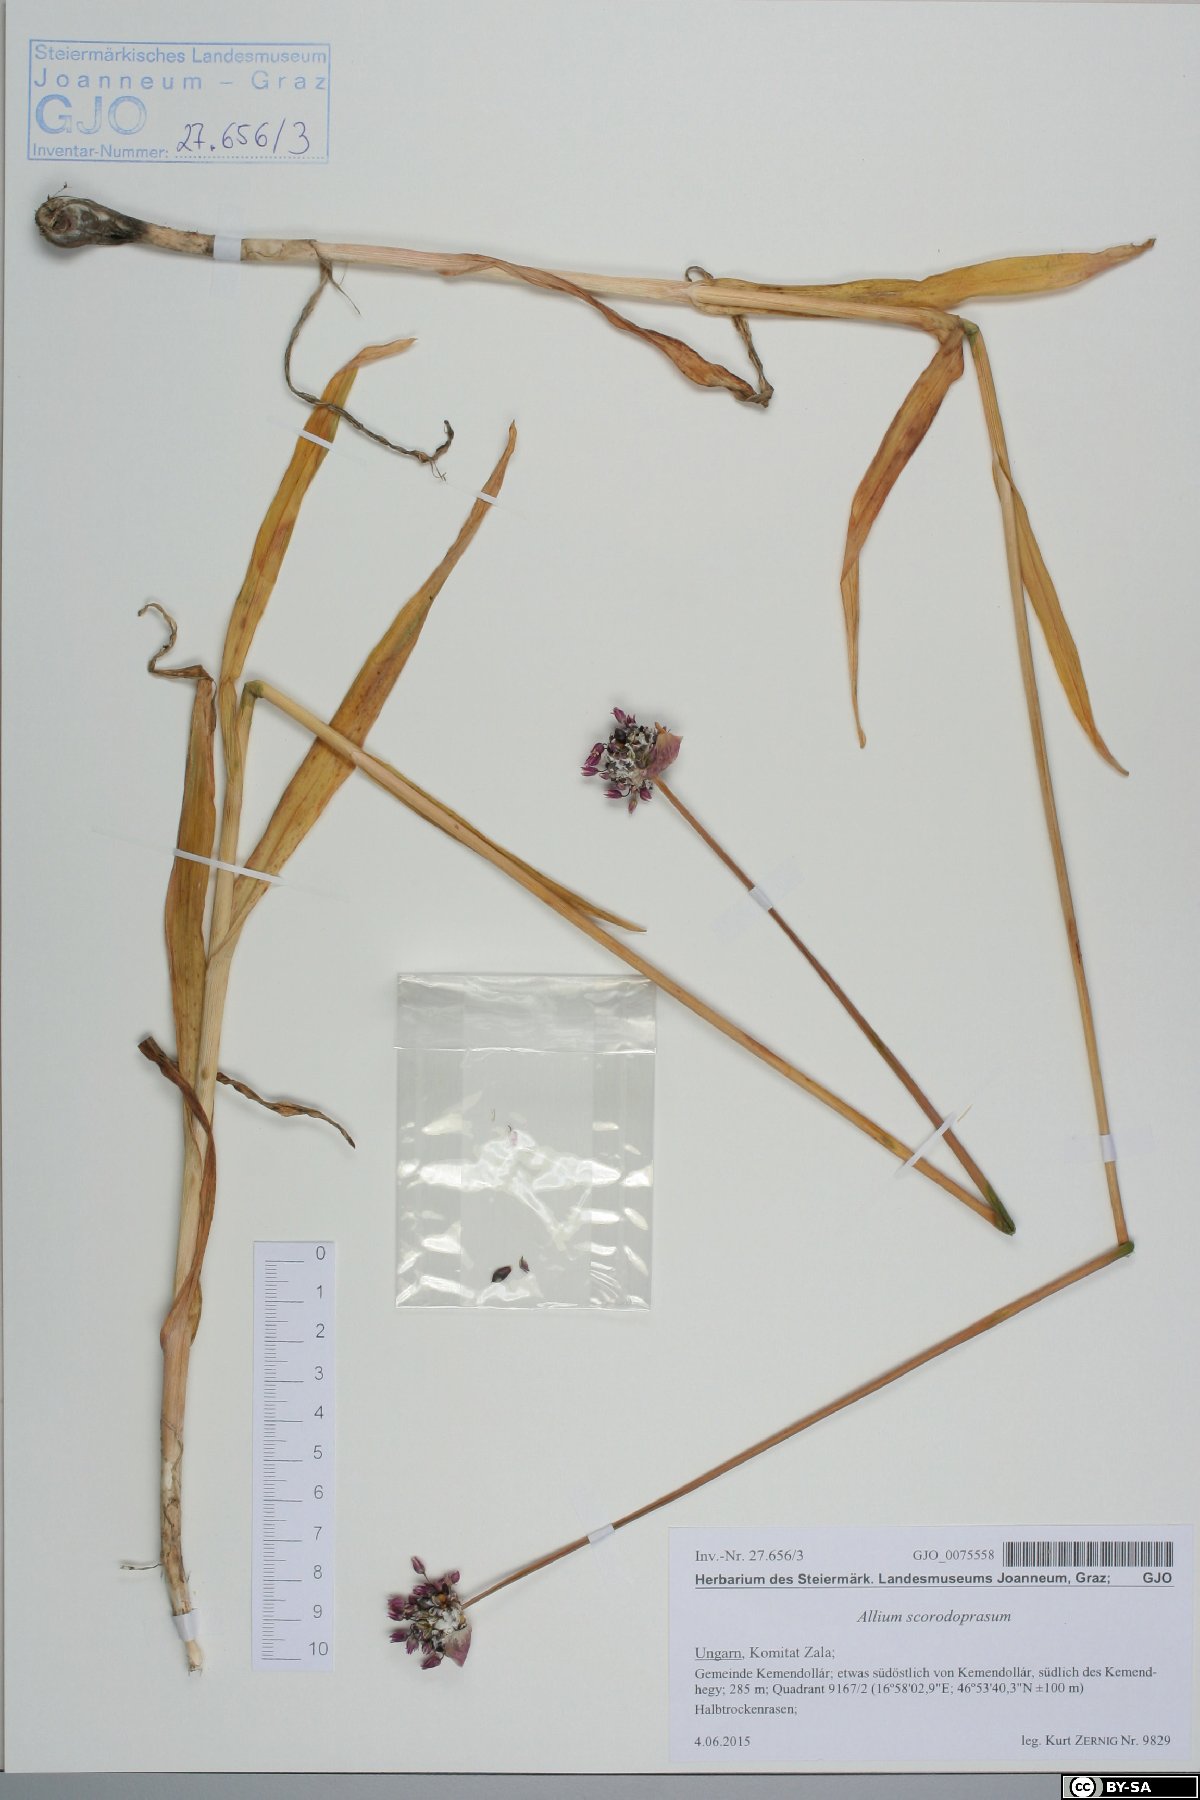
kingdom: Plantae
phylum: Tracheophyta
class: Liliopsida
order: Asparagales
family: Amaryllidaceae
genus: Allium
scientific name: Allium scorodoprasum
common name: Sand leek
